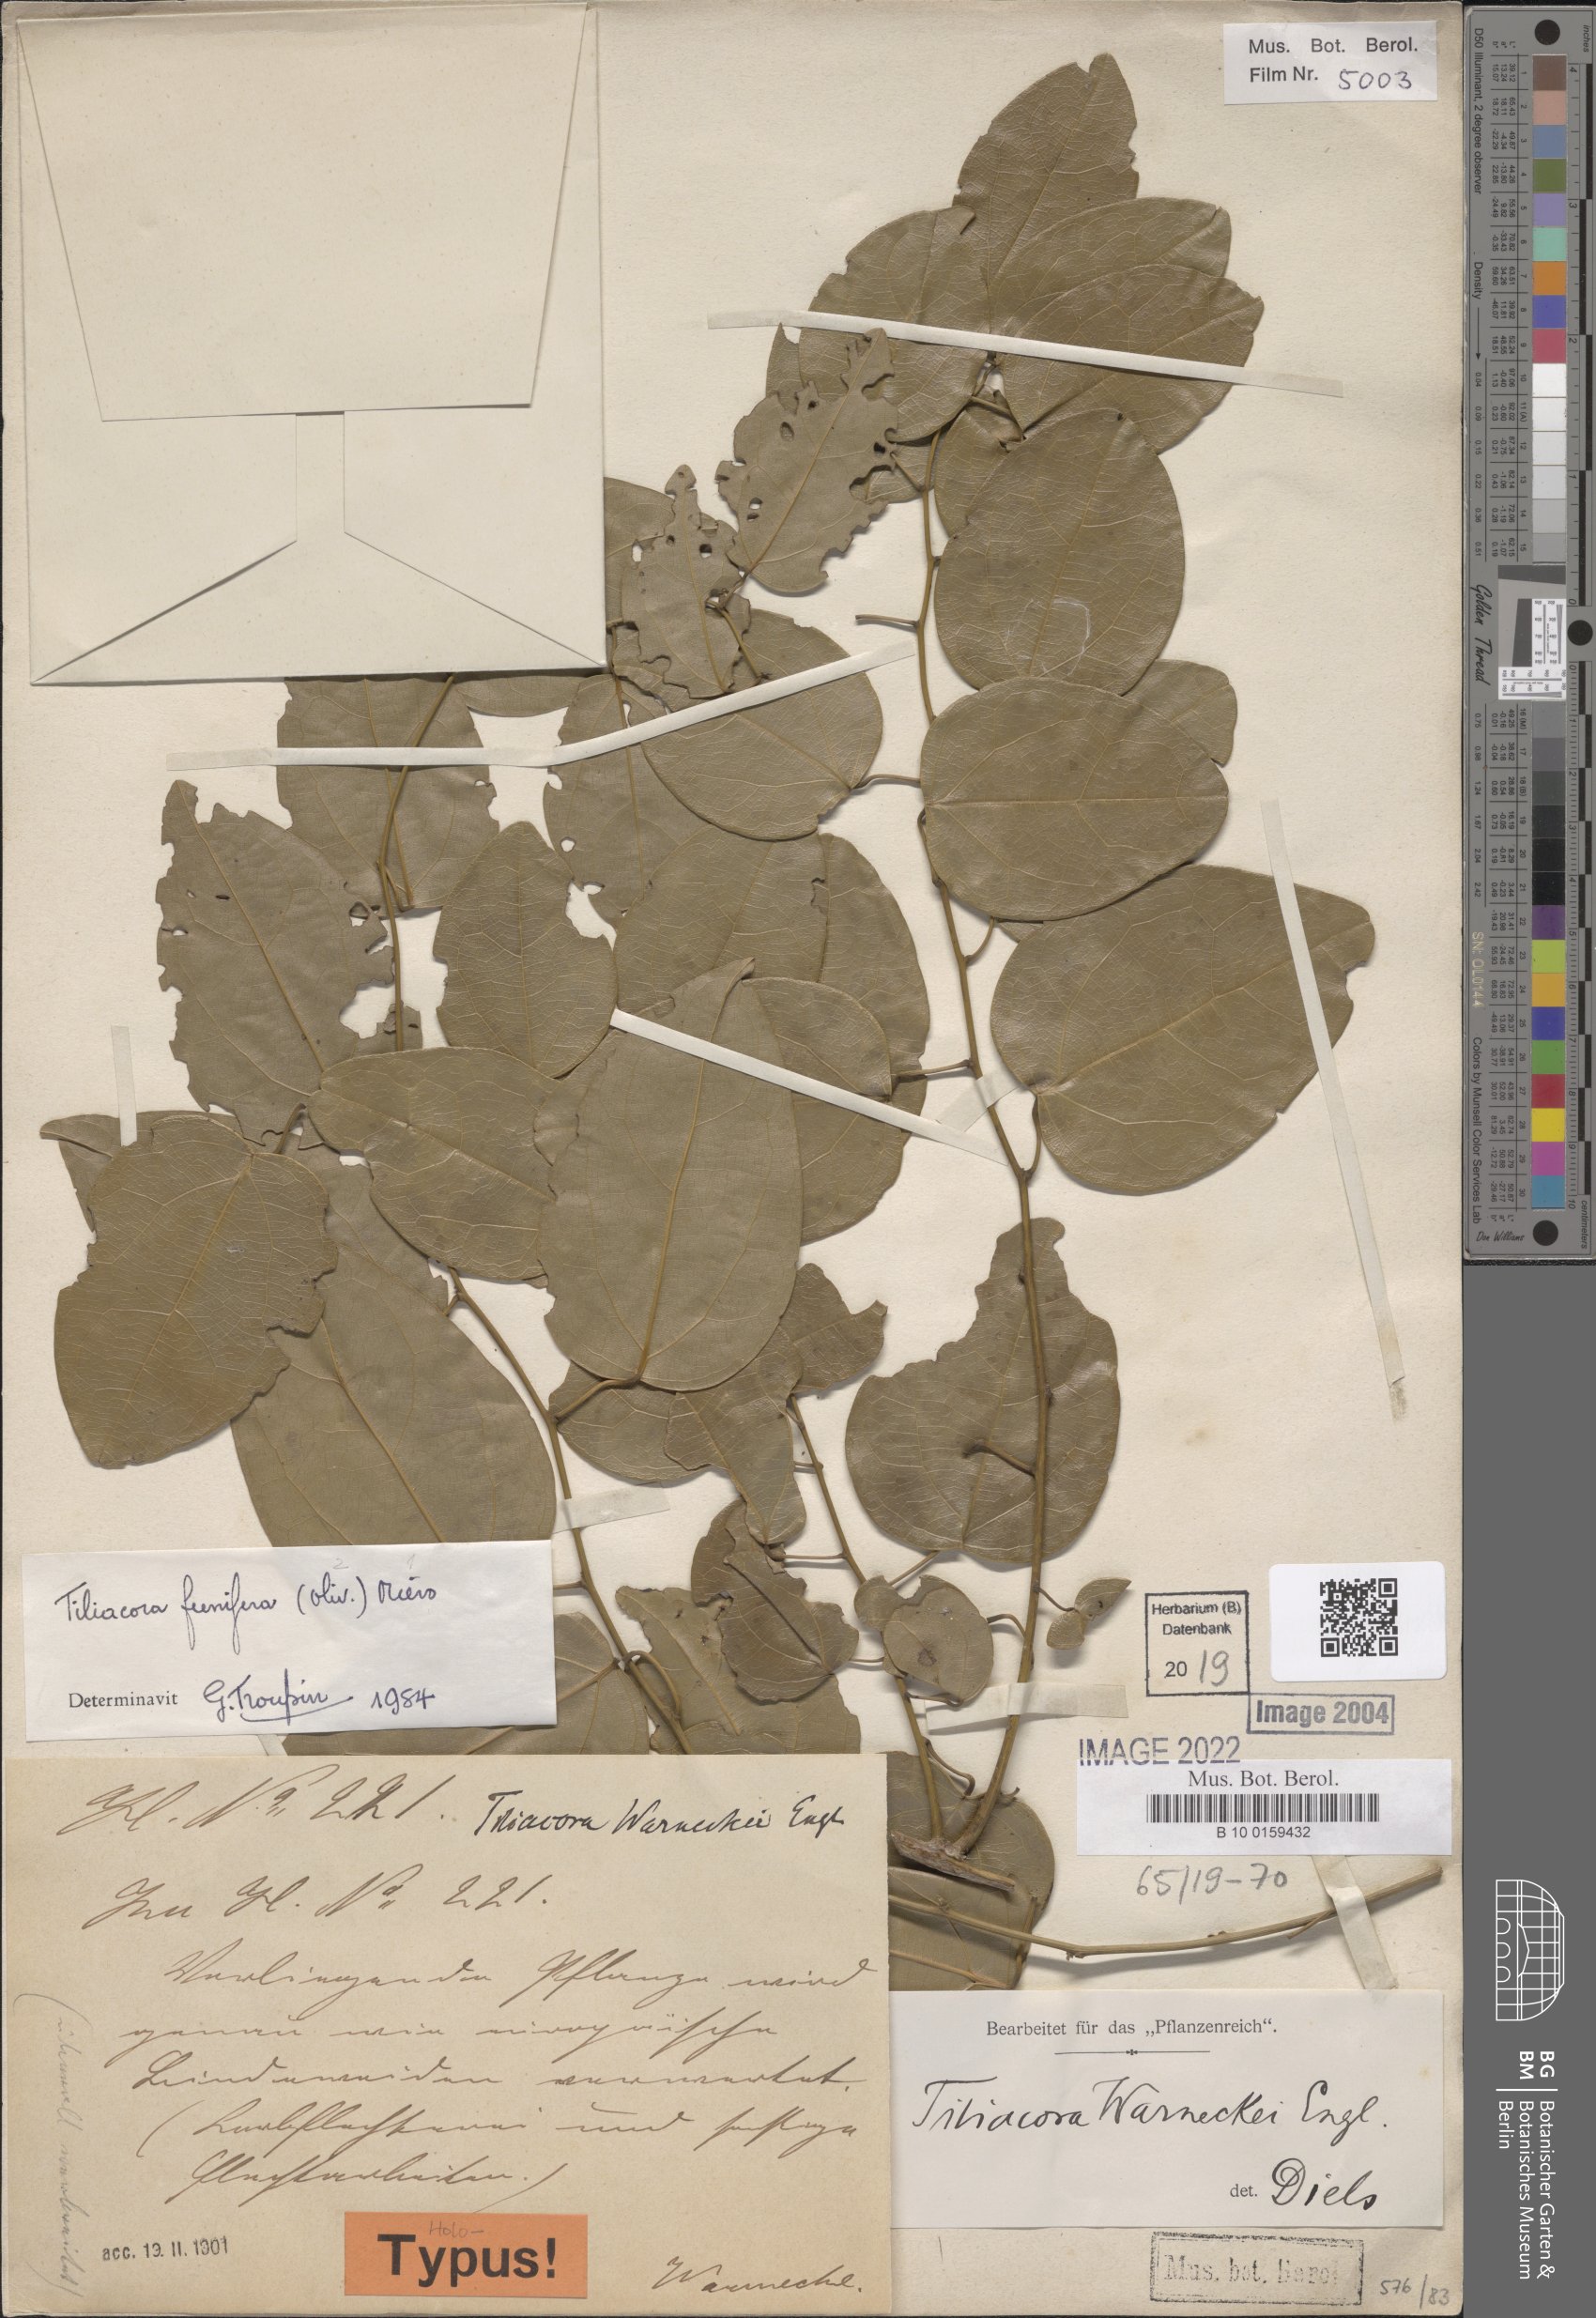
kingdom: Plantae
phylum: Tracheophyta
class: Magnoliopsida
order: Ranunculales
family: Menispermaceae
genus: Tiliacora
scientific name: Tiliacora funifera
